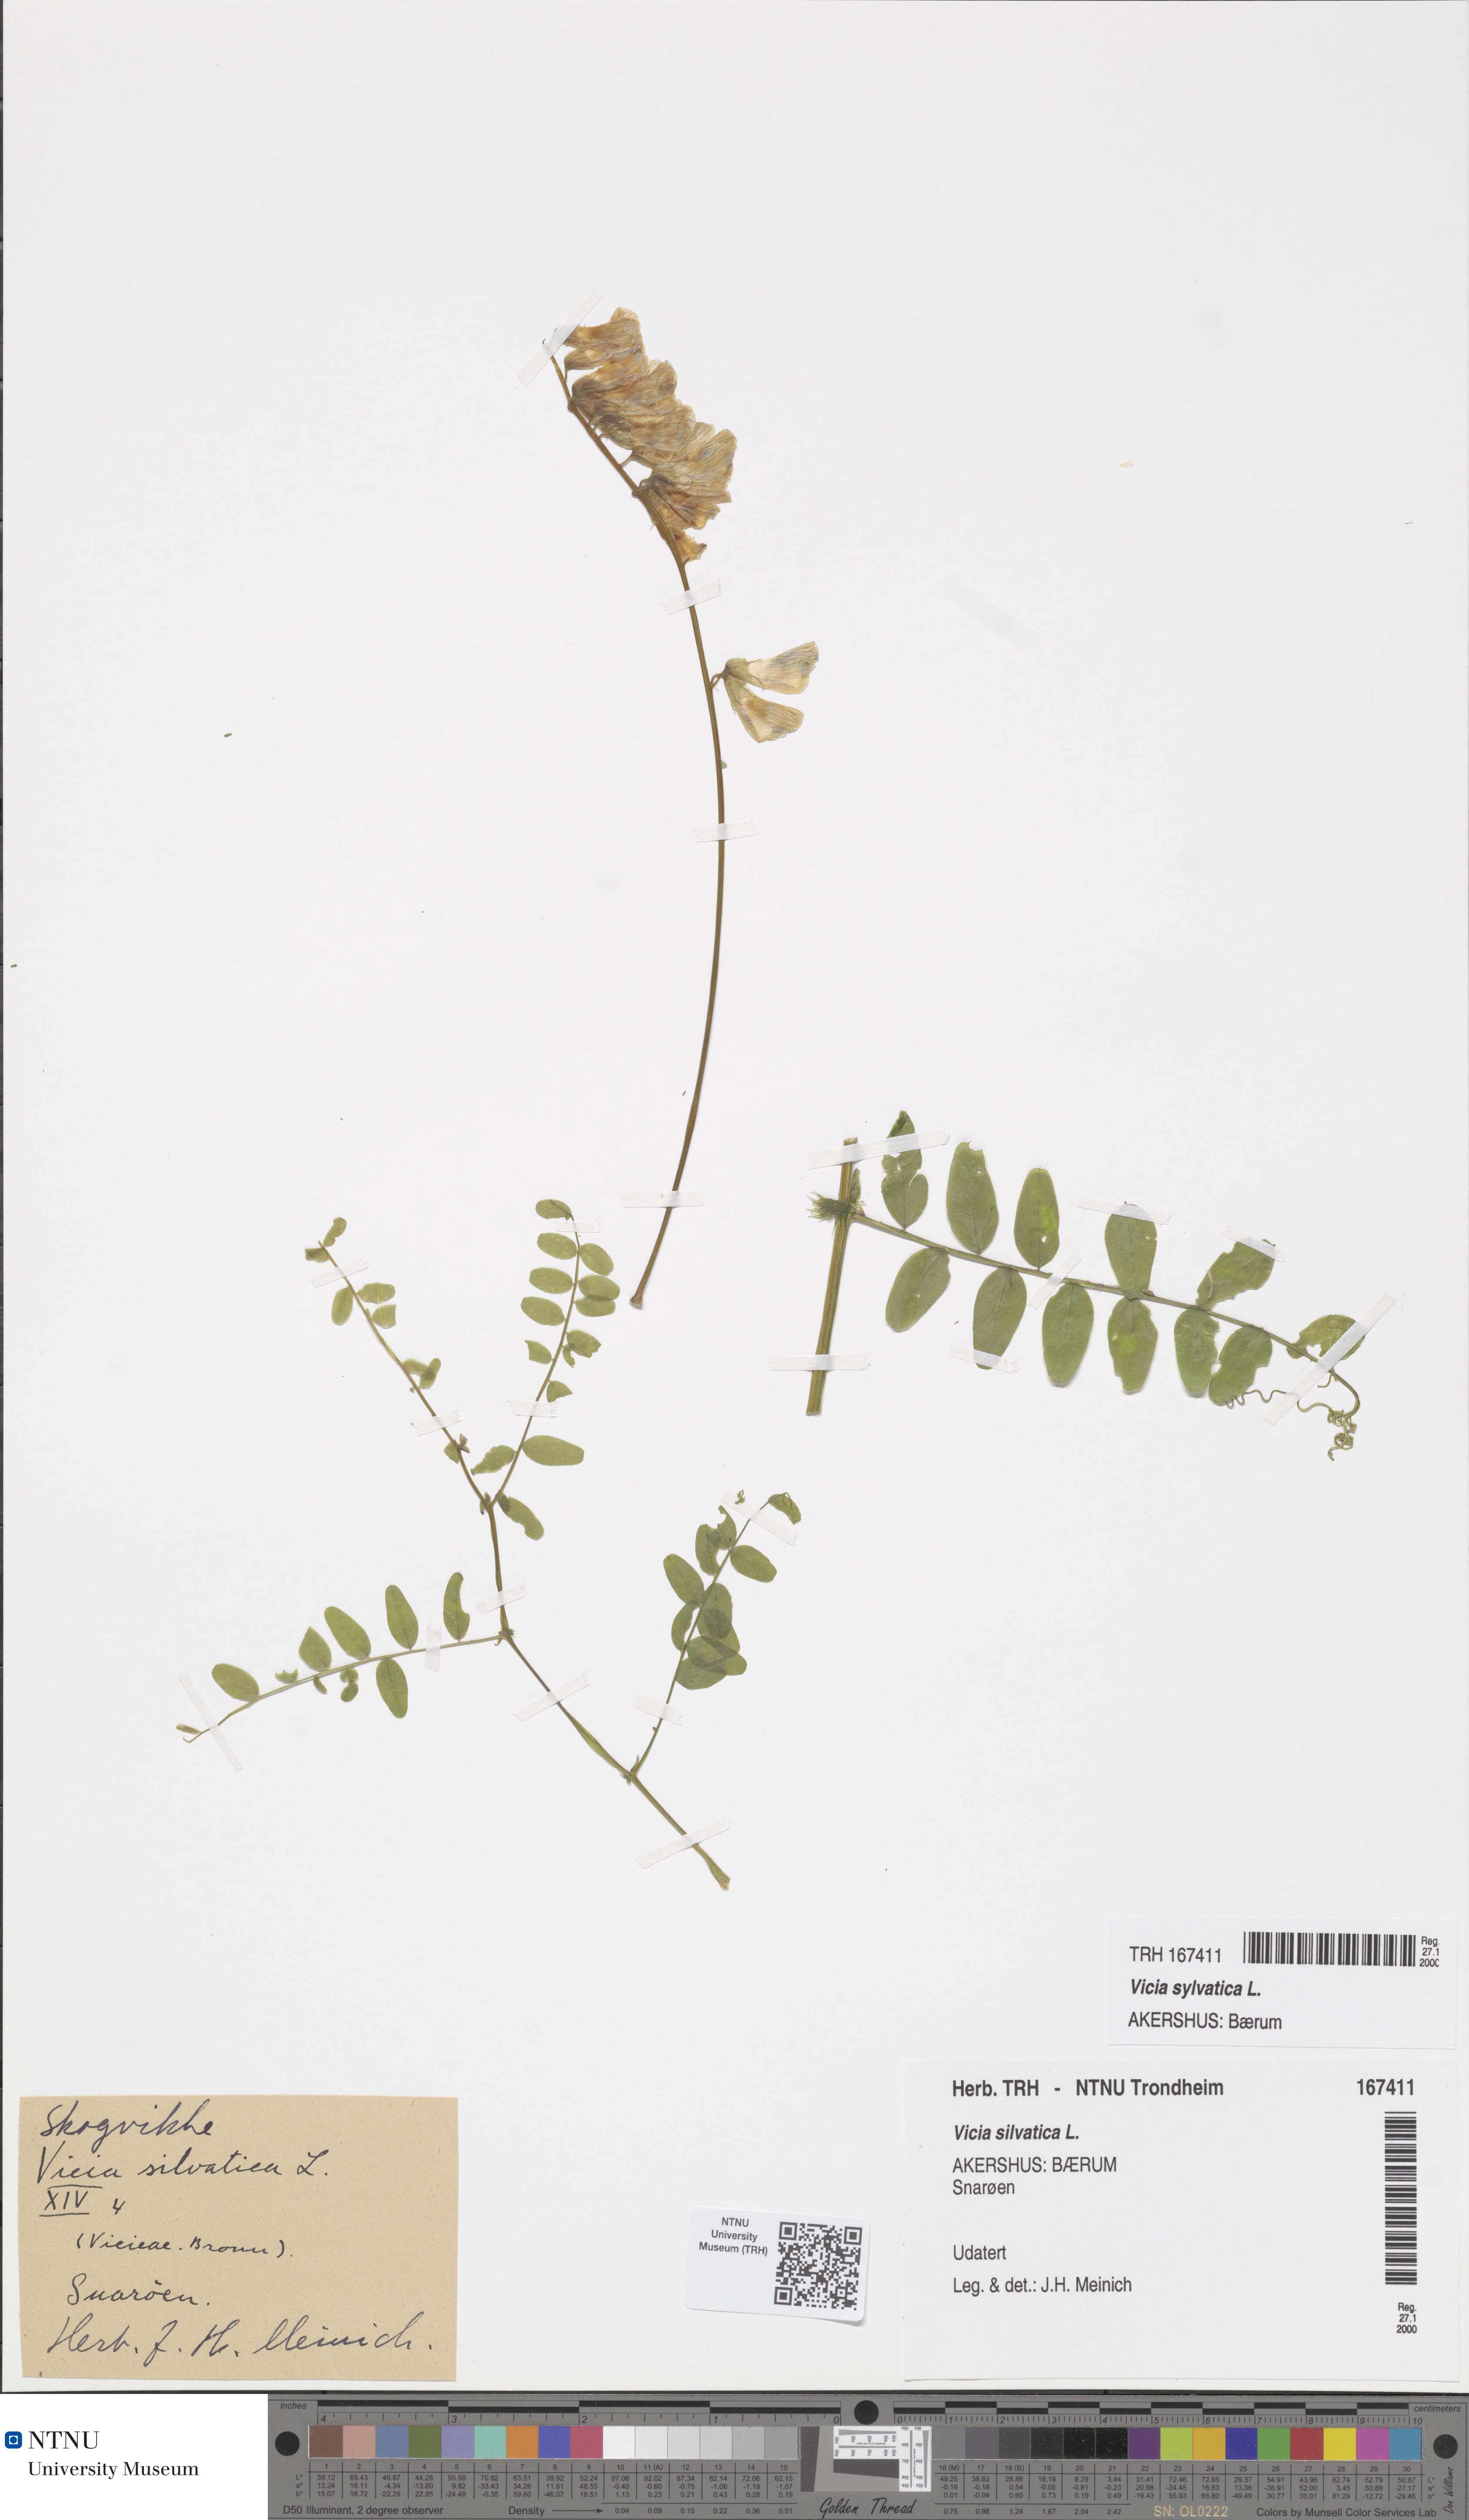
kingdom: Plantae
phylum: Tracheophyta
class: Magnoliopsida
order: Fabales
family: Fabaceae
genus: Vicia
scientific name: Vicia sylvatica
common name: Wood vetch
